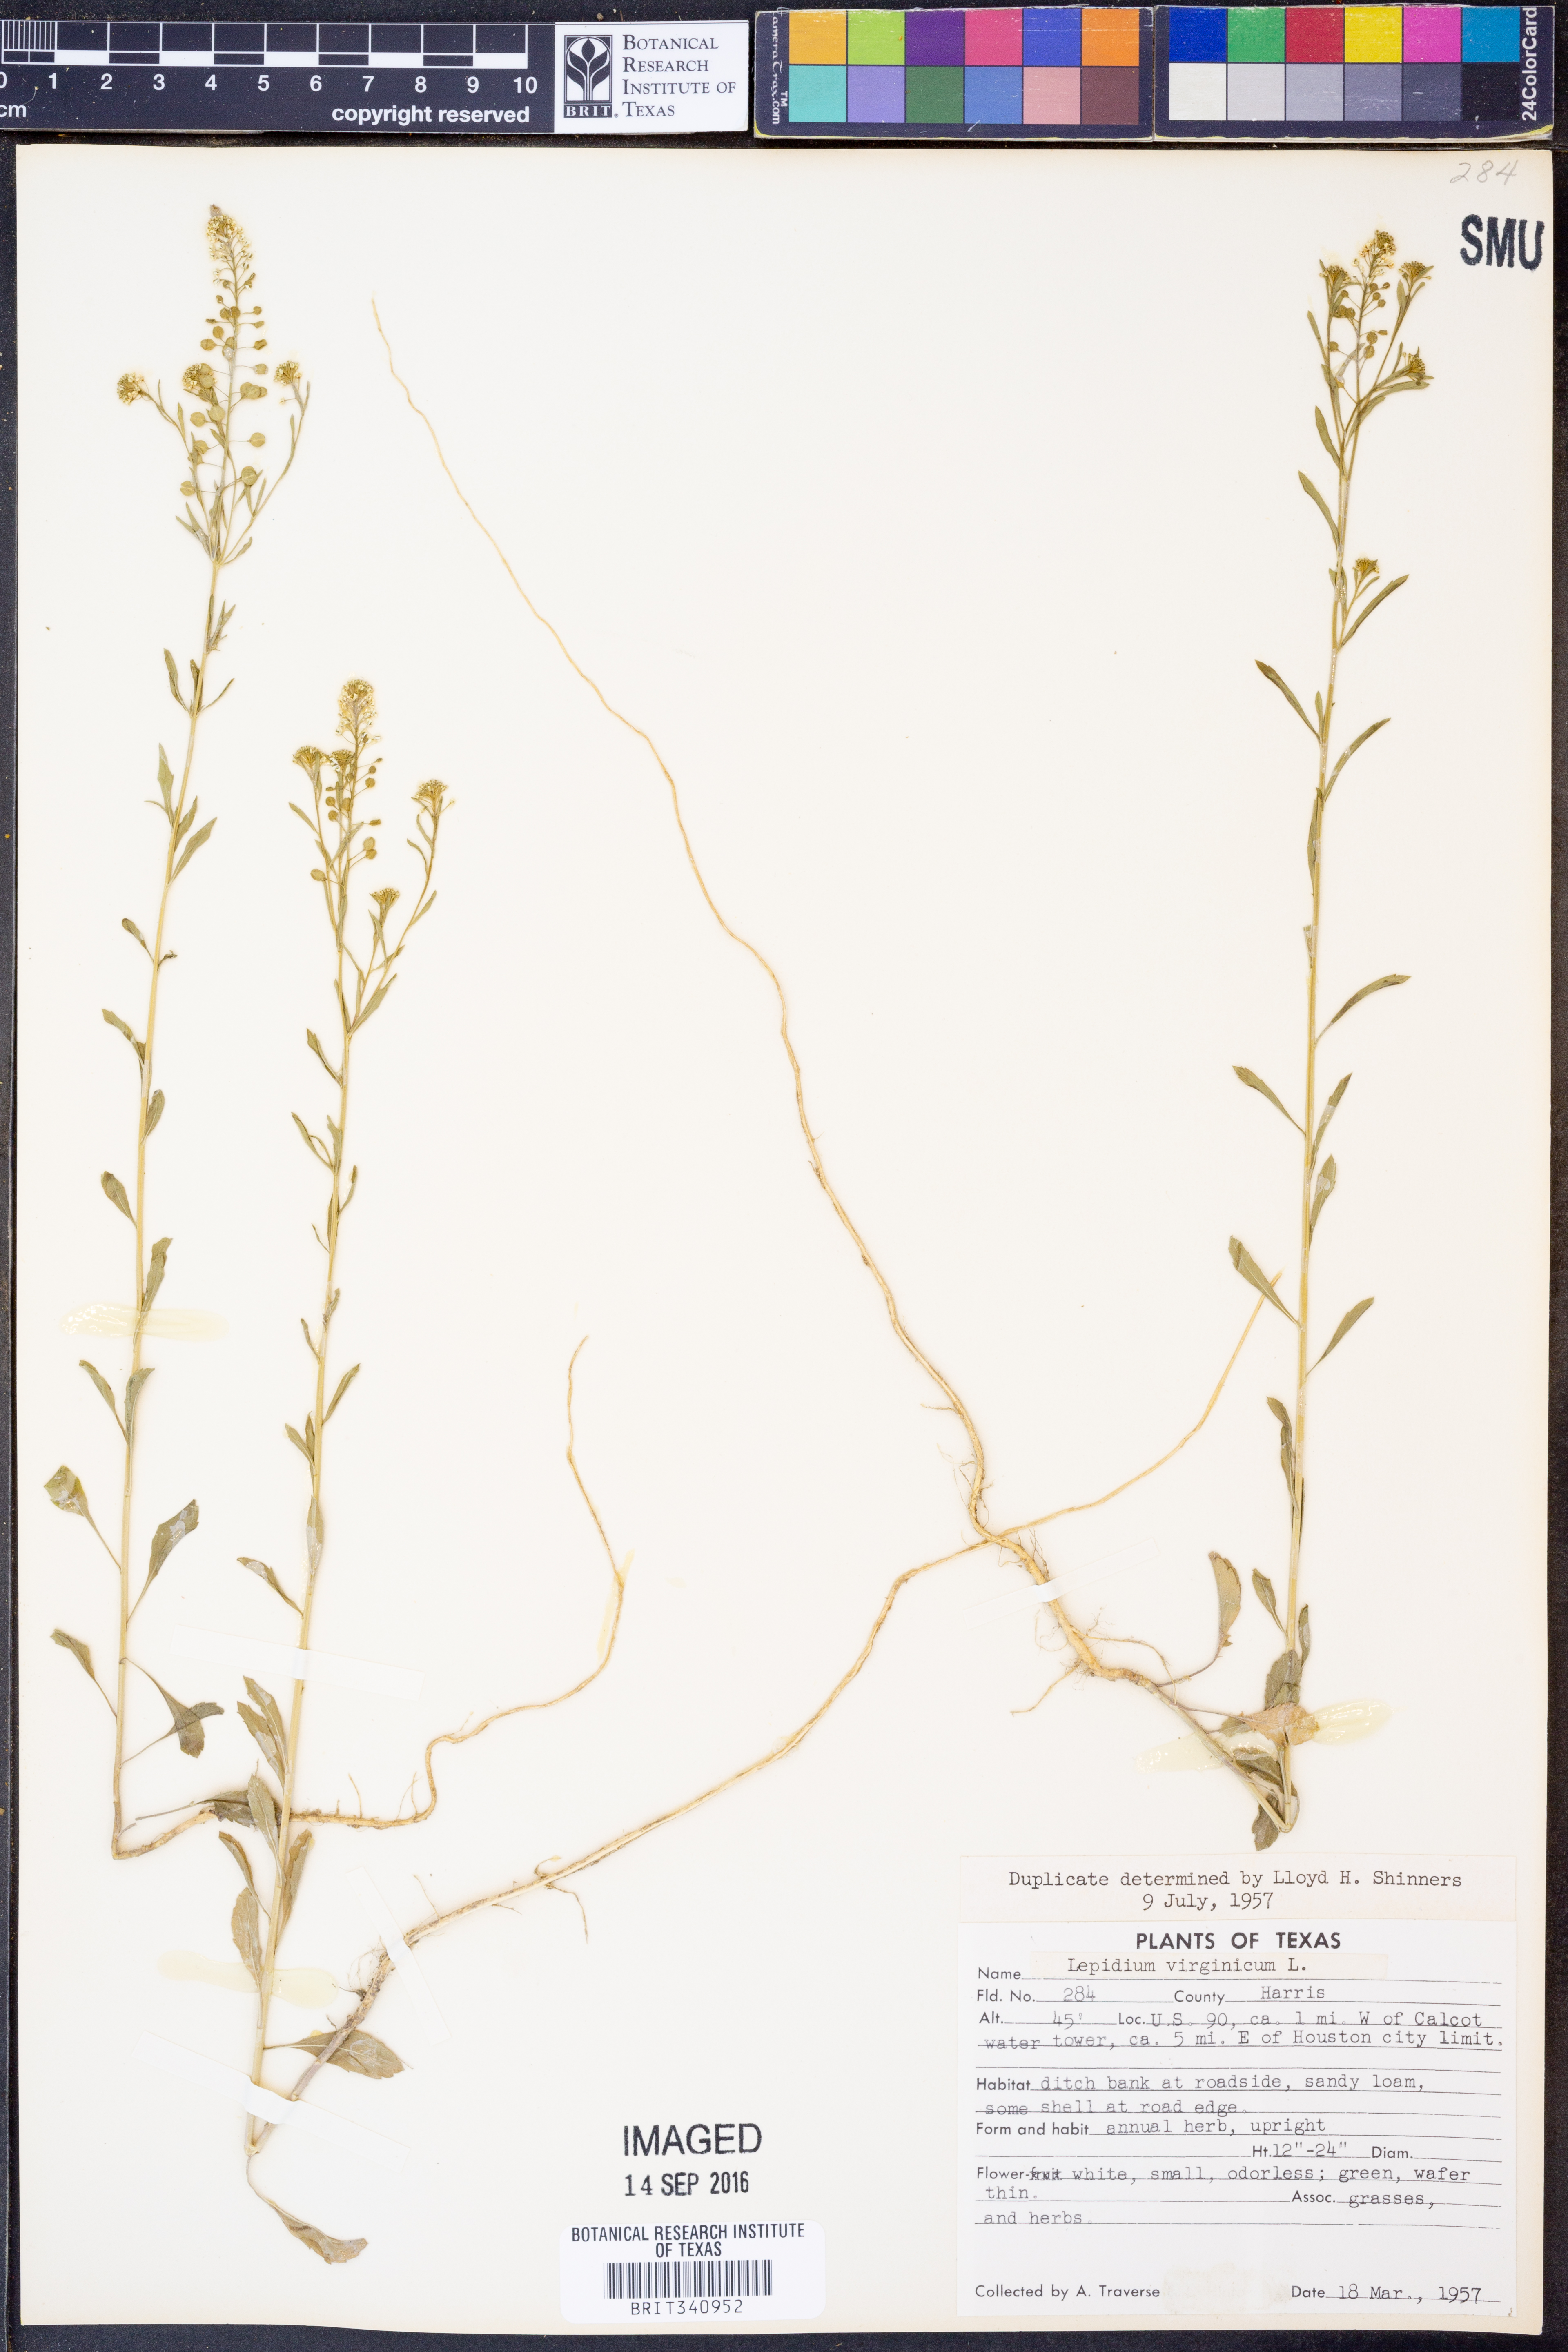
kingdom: Plantae
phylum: Tracheophyta
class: Magnoliopsida
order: Brassicales
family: Brassicaceae
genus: Lepidium
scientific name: Lepidium virginicum
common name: Least pepperwort
